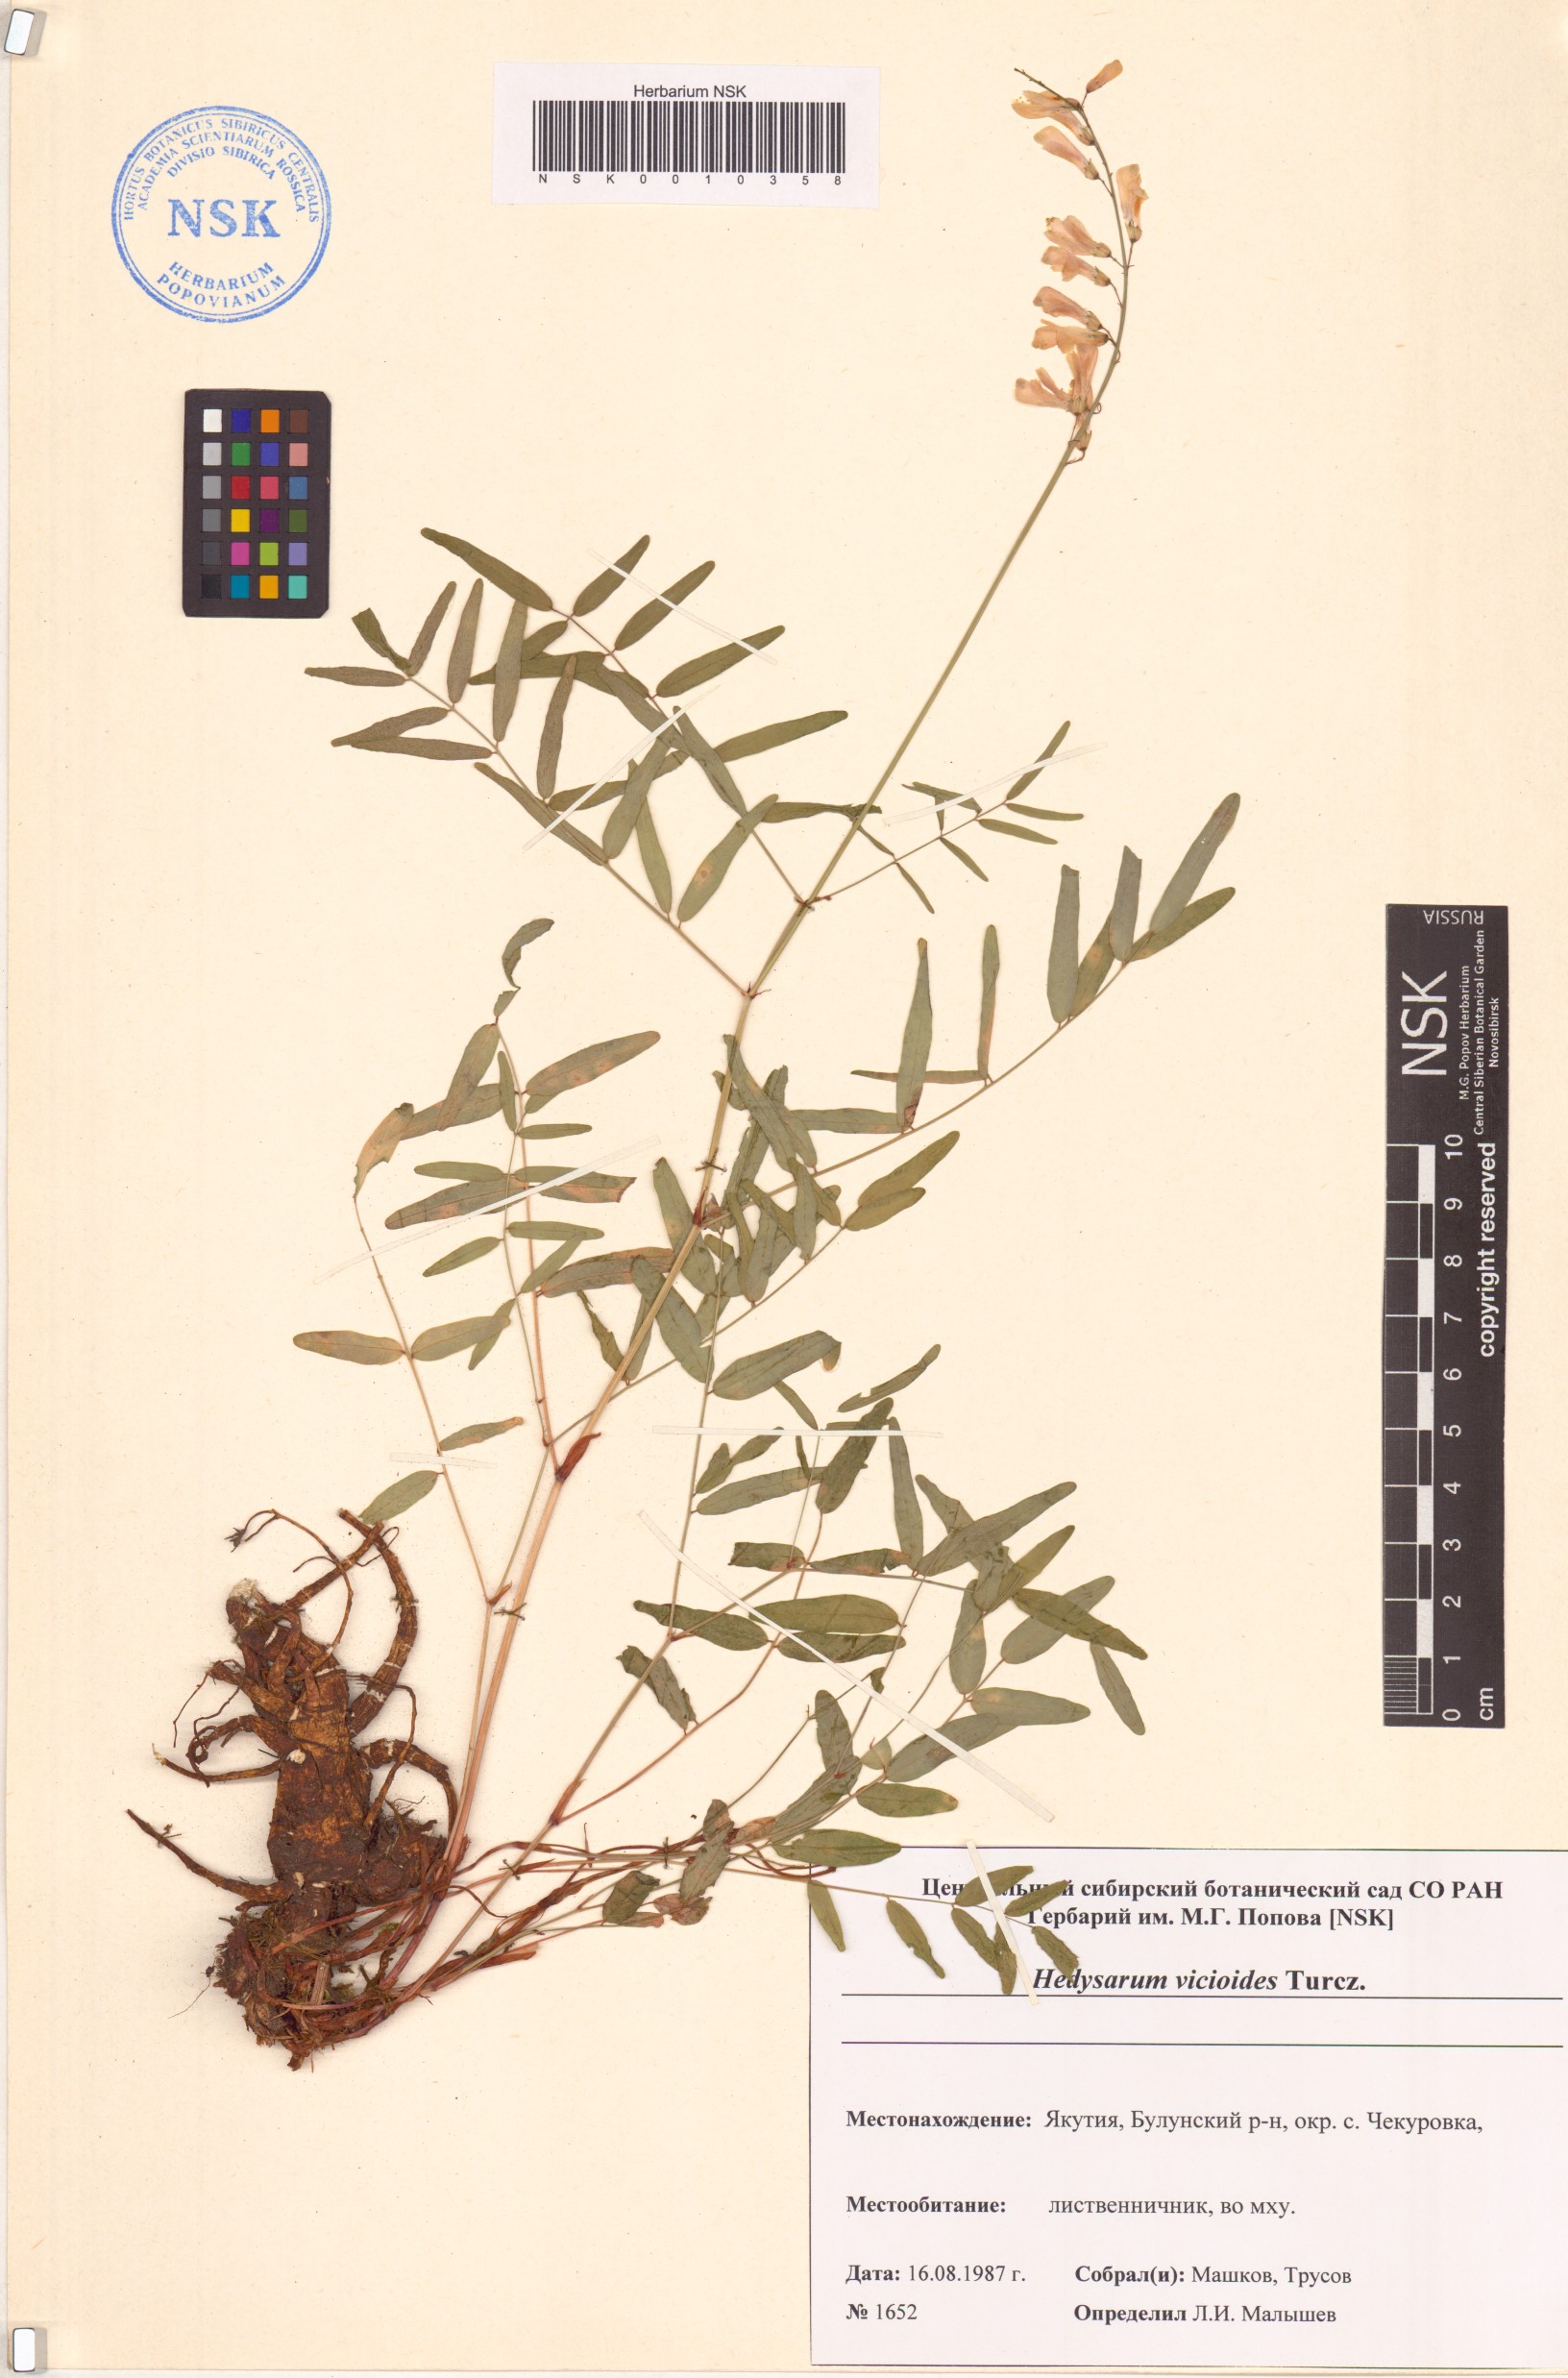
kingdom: Plantae
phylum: Tracheophyta
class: Magnoliopsida
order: Fabales
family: Fabaceae
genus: Hedysarum
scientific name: Hedysarum vicioides
